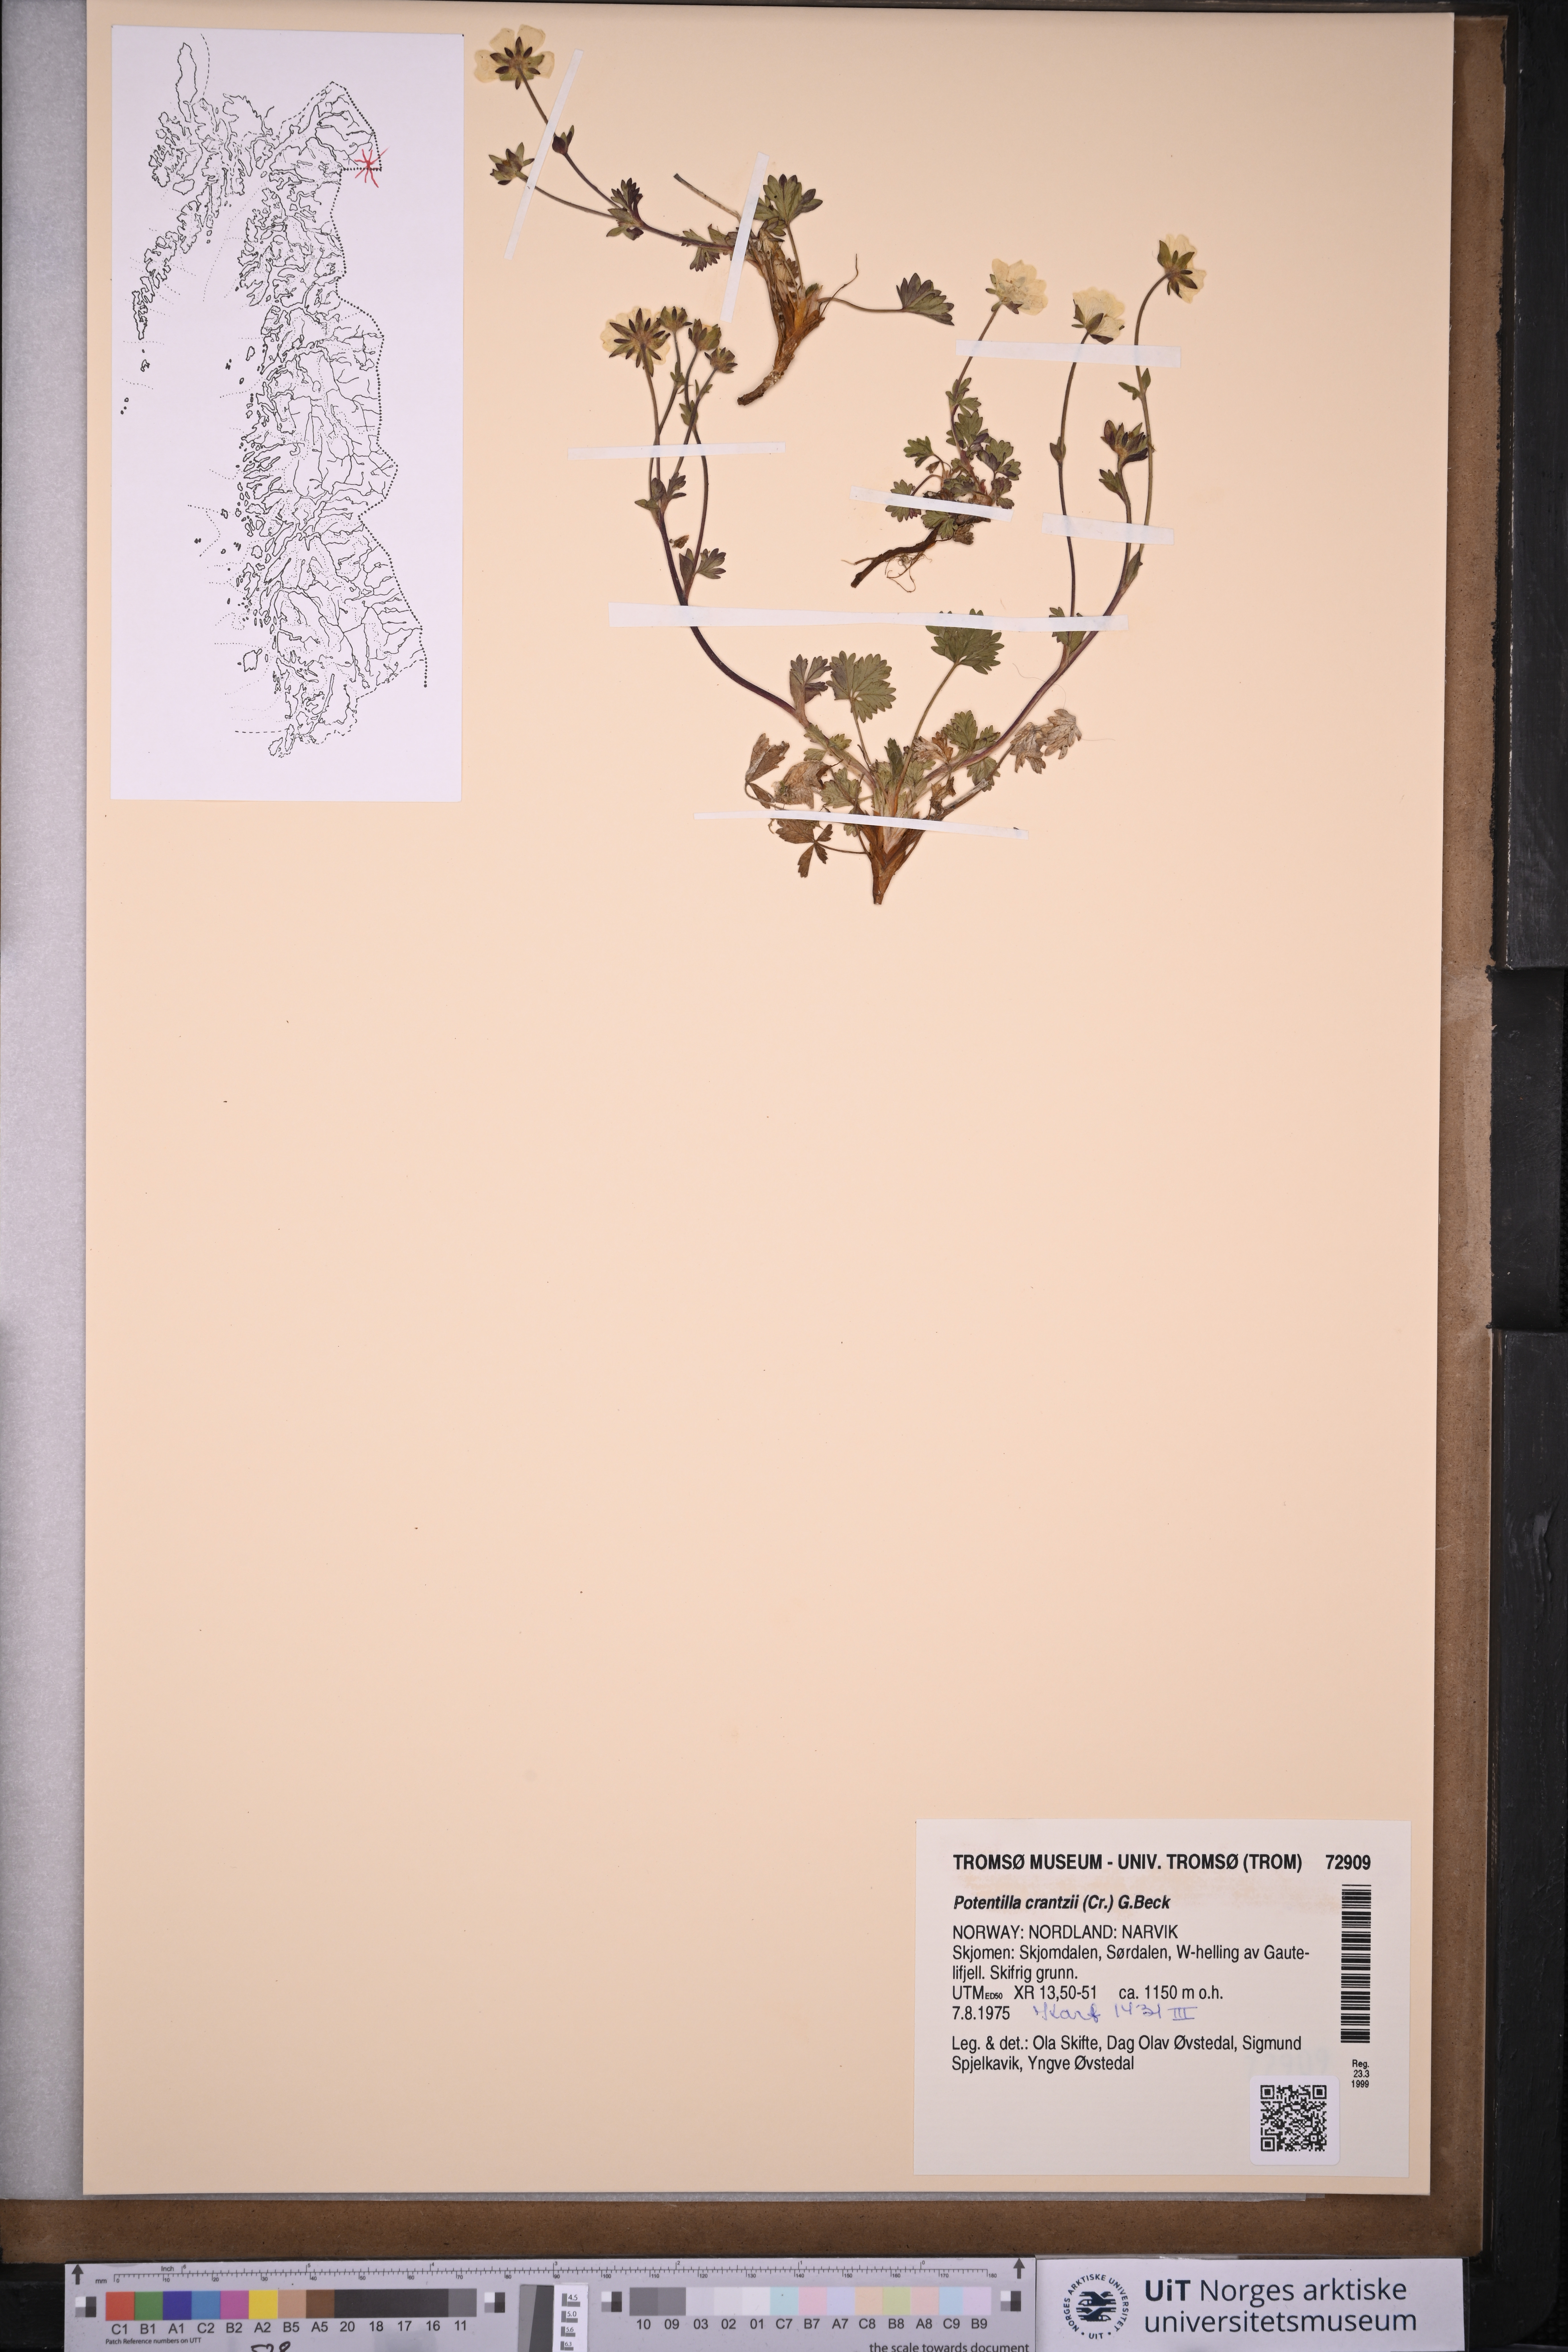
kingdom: Plantae
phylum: Tracheophyta
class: Magnoliopsida
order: Rosales
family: Rosaceae
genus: Potentilla
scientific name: Potentilla crantzii
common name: Alpine cinquefoil
